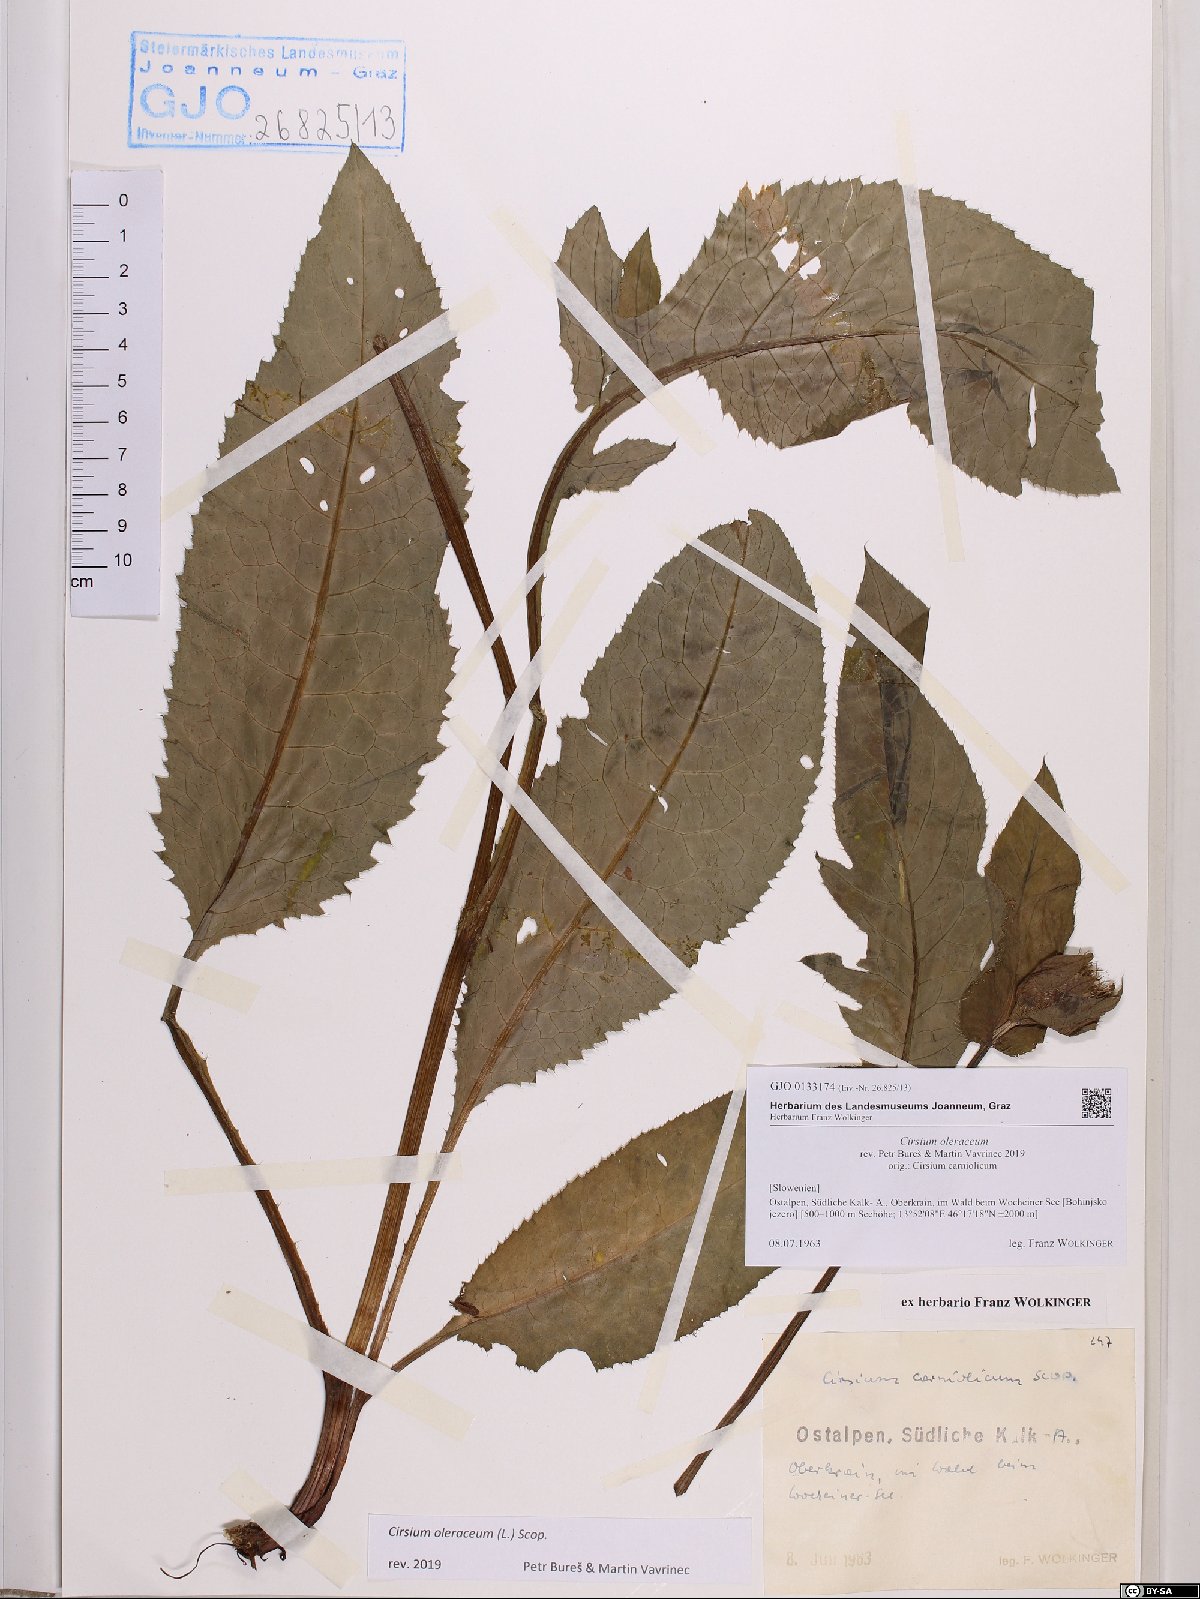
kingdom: Plantae
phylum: Tracheophyta
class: Magnoliopsida
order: Asterales
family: Asteraceae
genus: Cirsium
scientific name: Cirsium oleraceum
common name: Cabbage thistle
